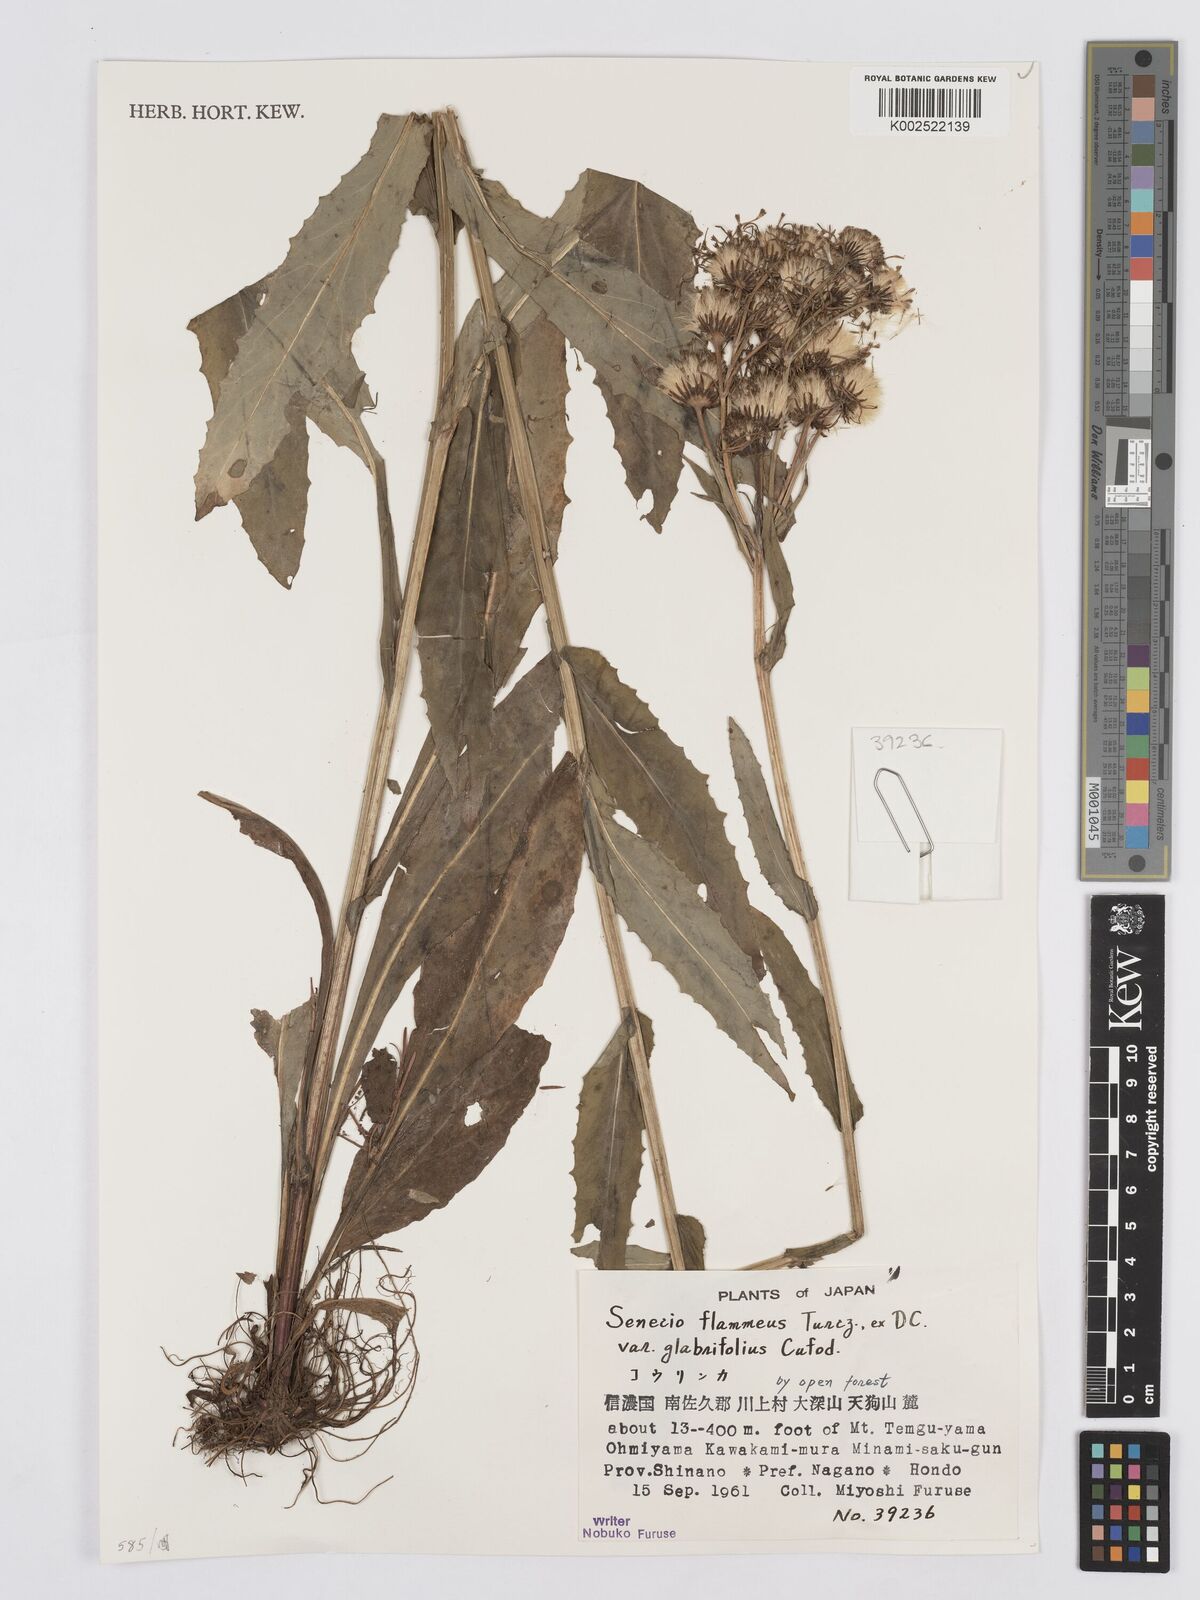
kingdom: Plantae
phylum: Tracheophyta
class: Magnoliopsida
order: Asterales
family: Asteraceae
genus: Tephroseris
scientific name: Tephroseris flammea
